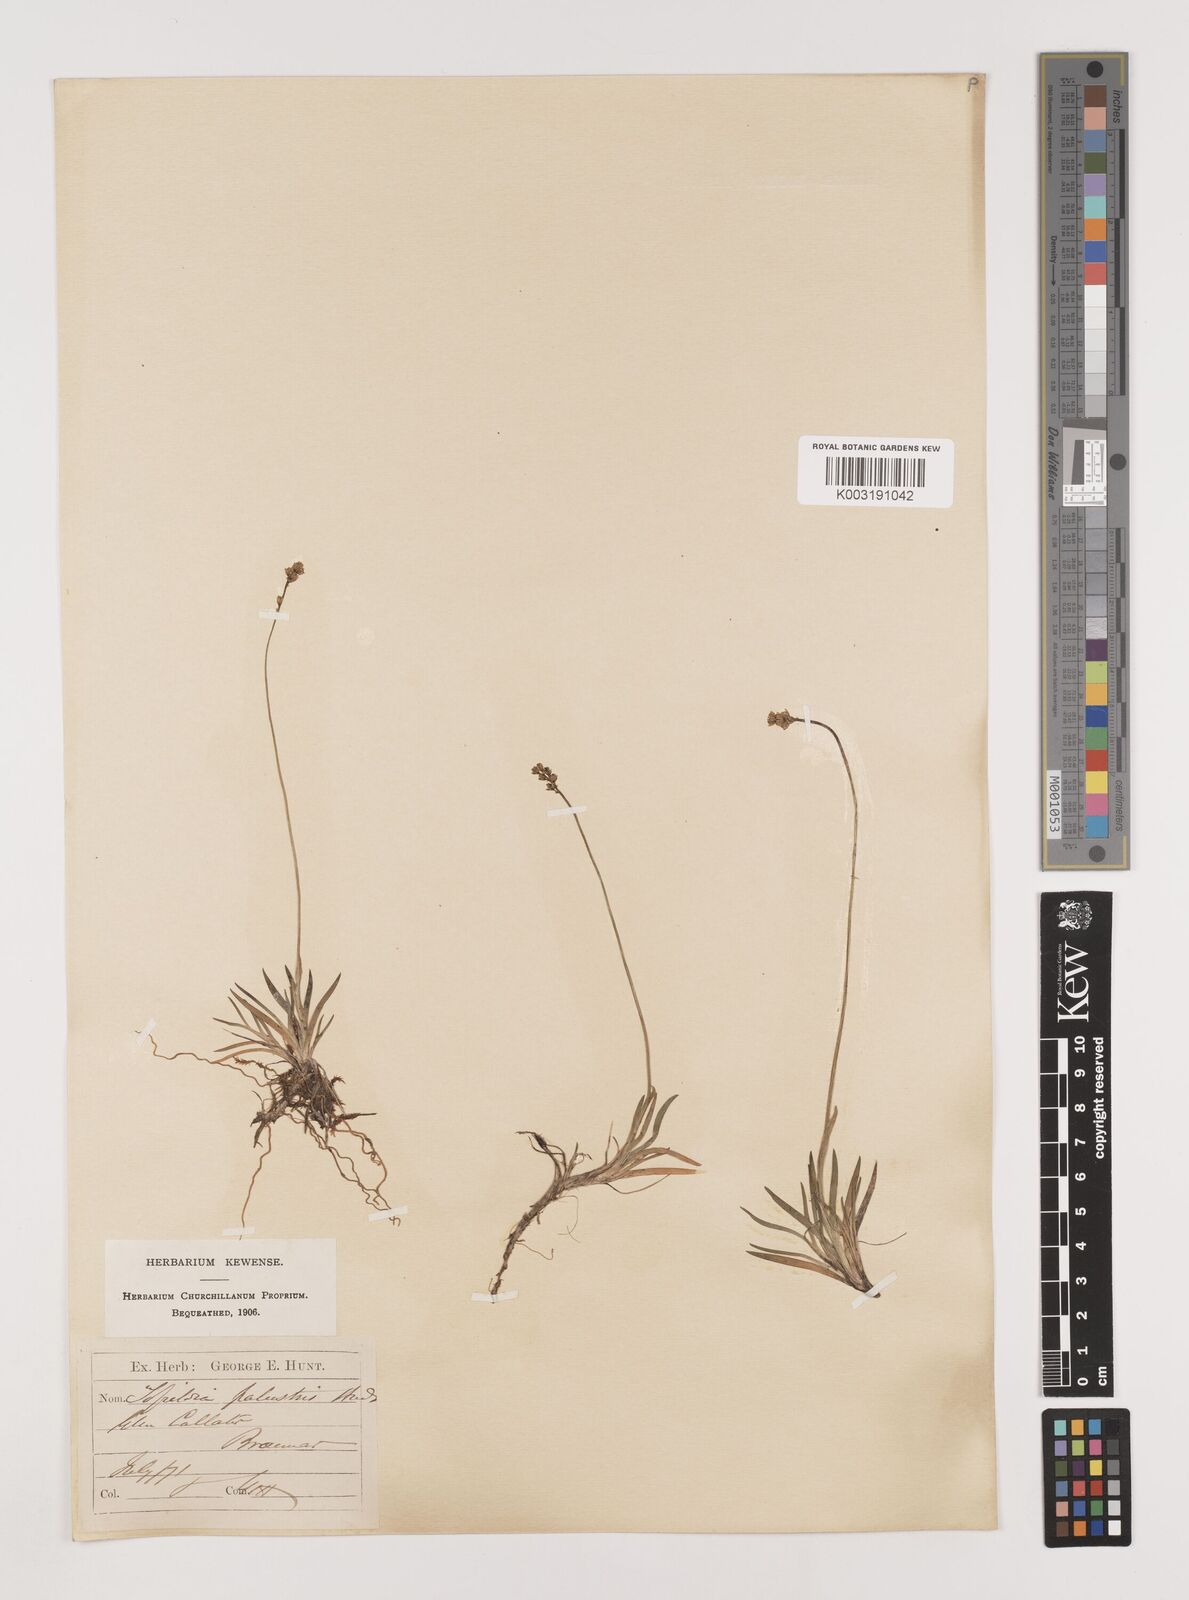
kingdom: Plantae
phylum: Tracheophyta
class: Liliopsida
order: Alismatales
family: Tofieldiaceae
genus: Tofieldia
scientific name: Tofieldia pusilla
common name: Scottish false asphodel
